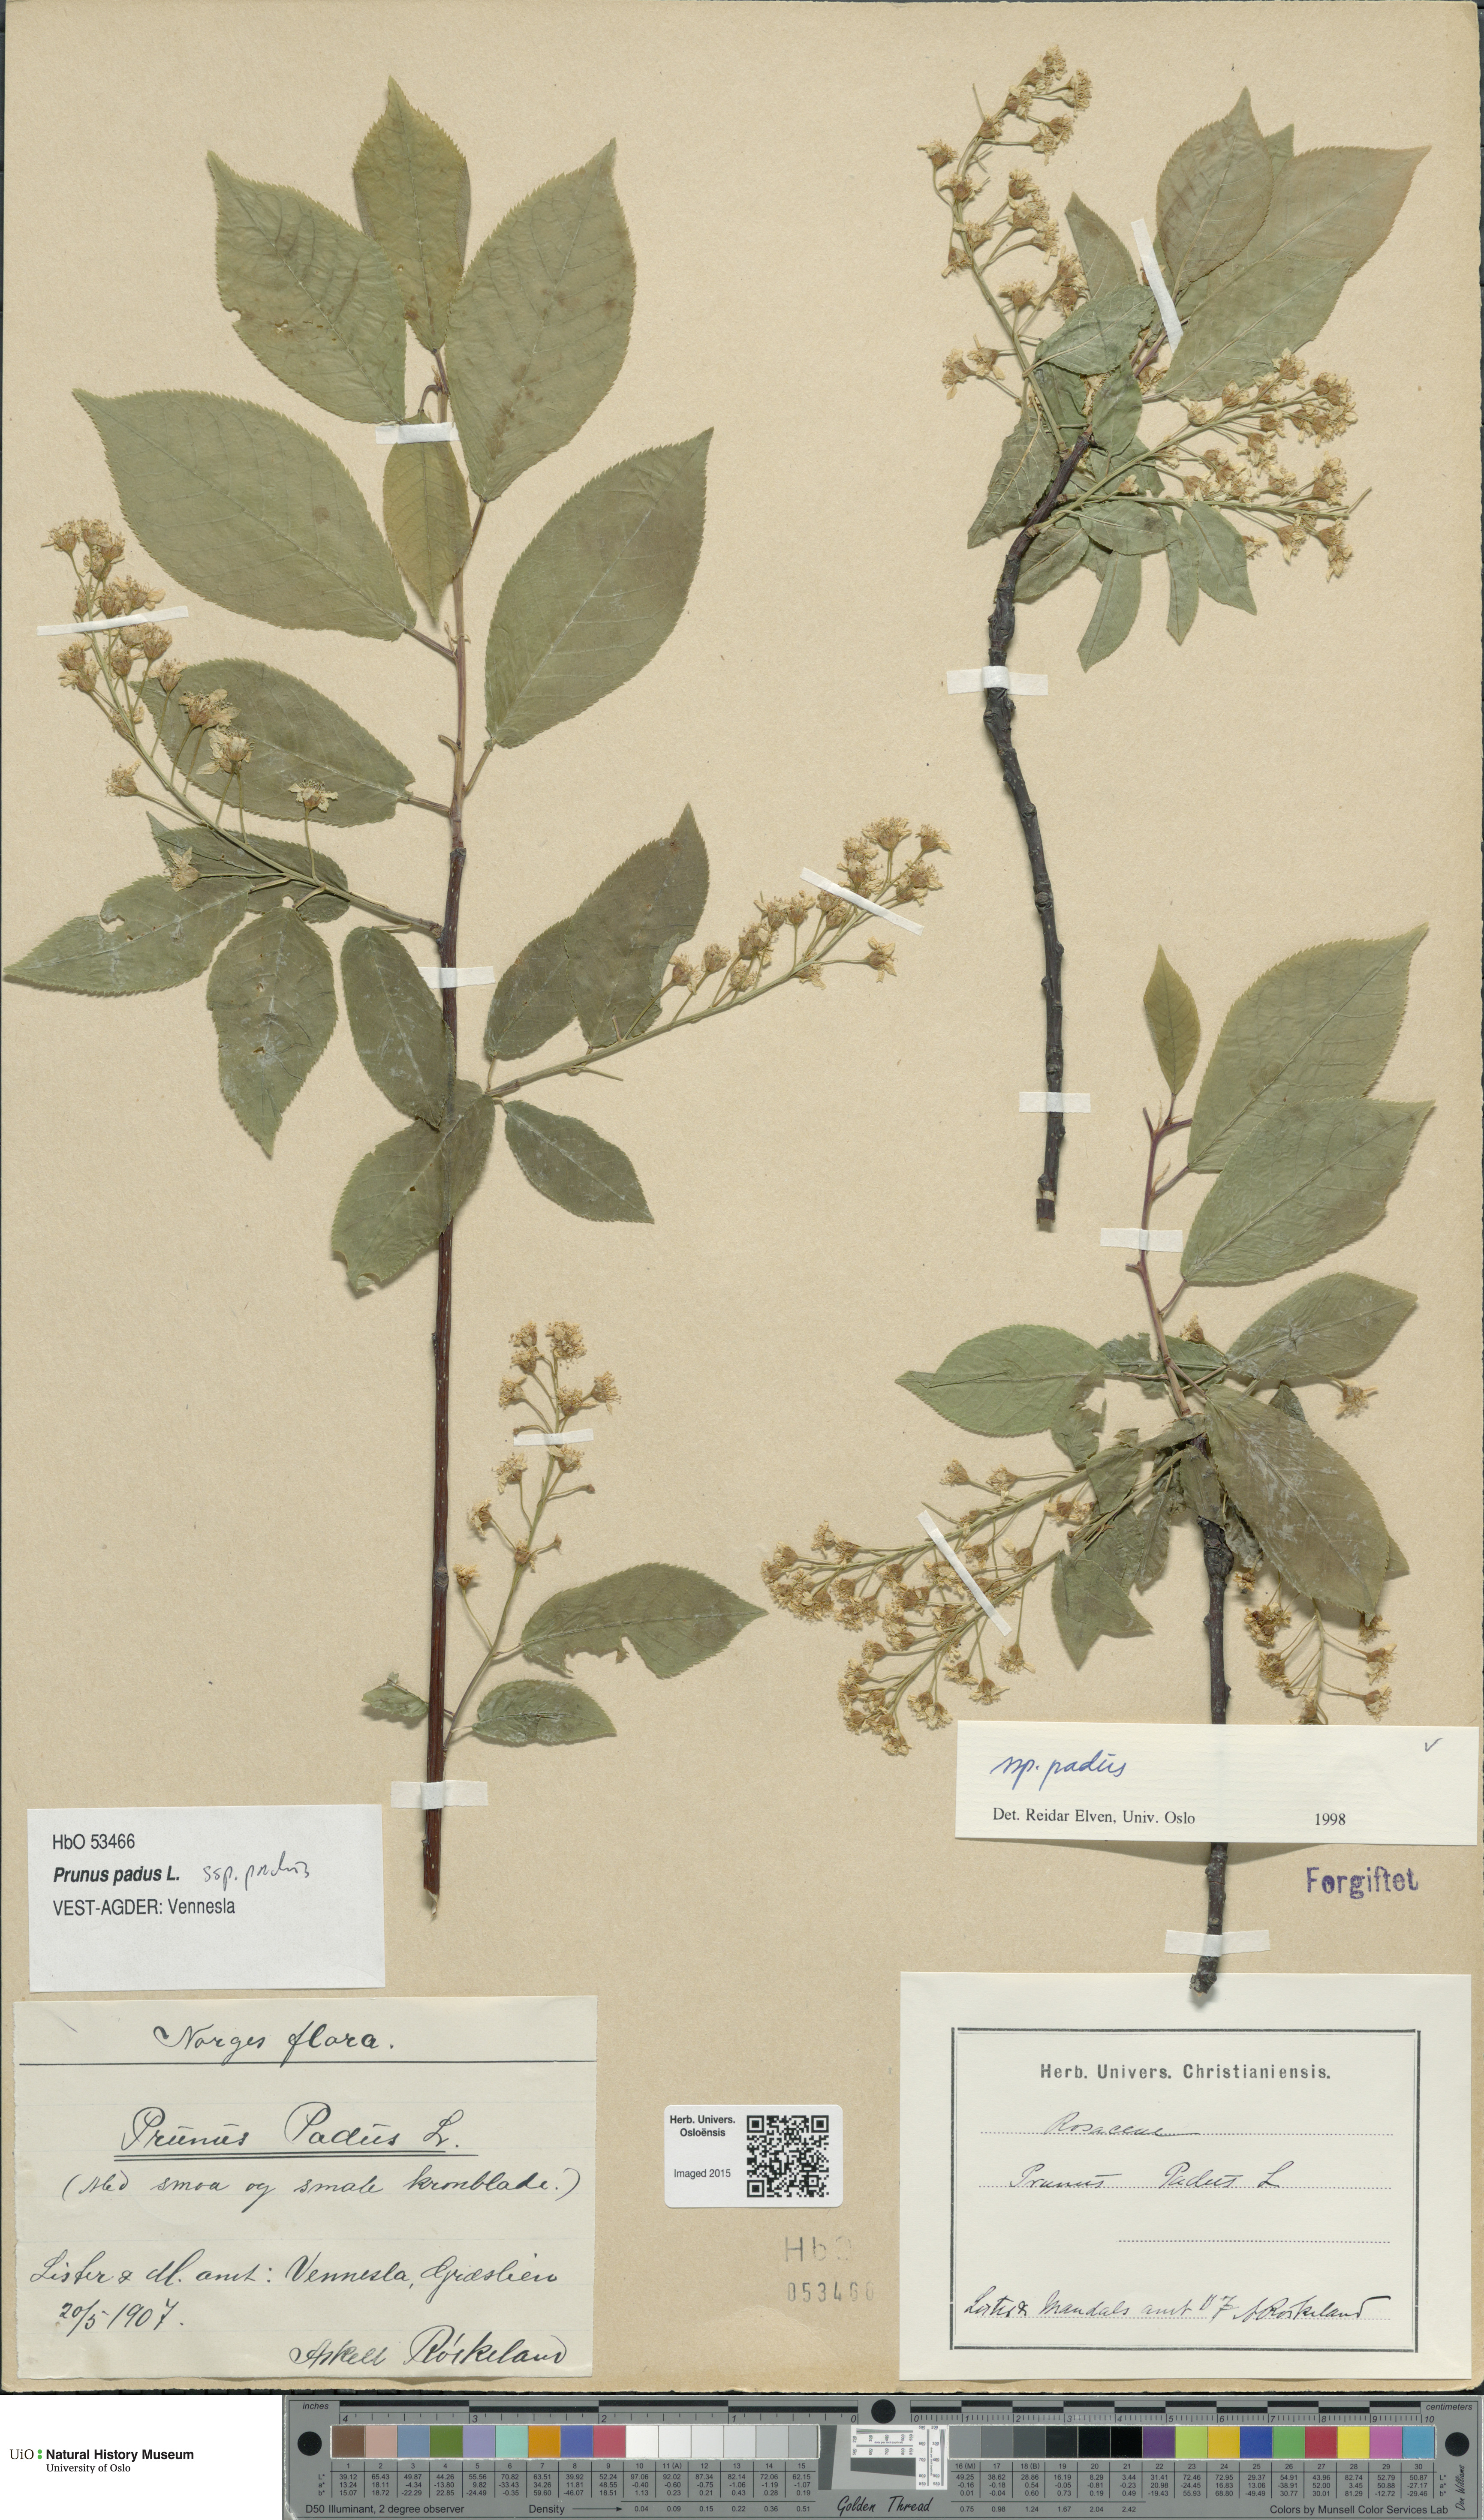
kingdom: Plantae
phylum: Tracheophyta
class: Magnoliopsida
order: Rosales
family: Rosaceae
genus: Prunus
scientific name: Prunus padus
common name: Bird cherry
